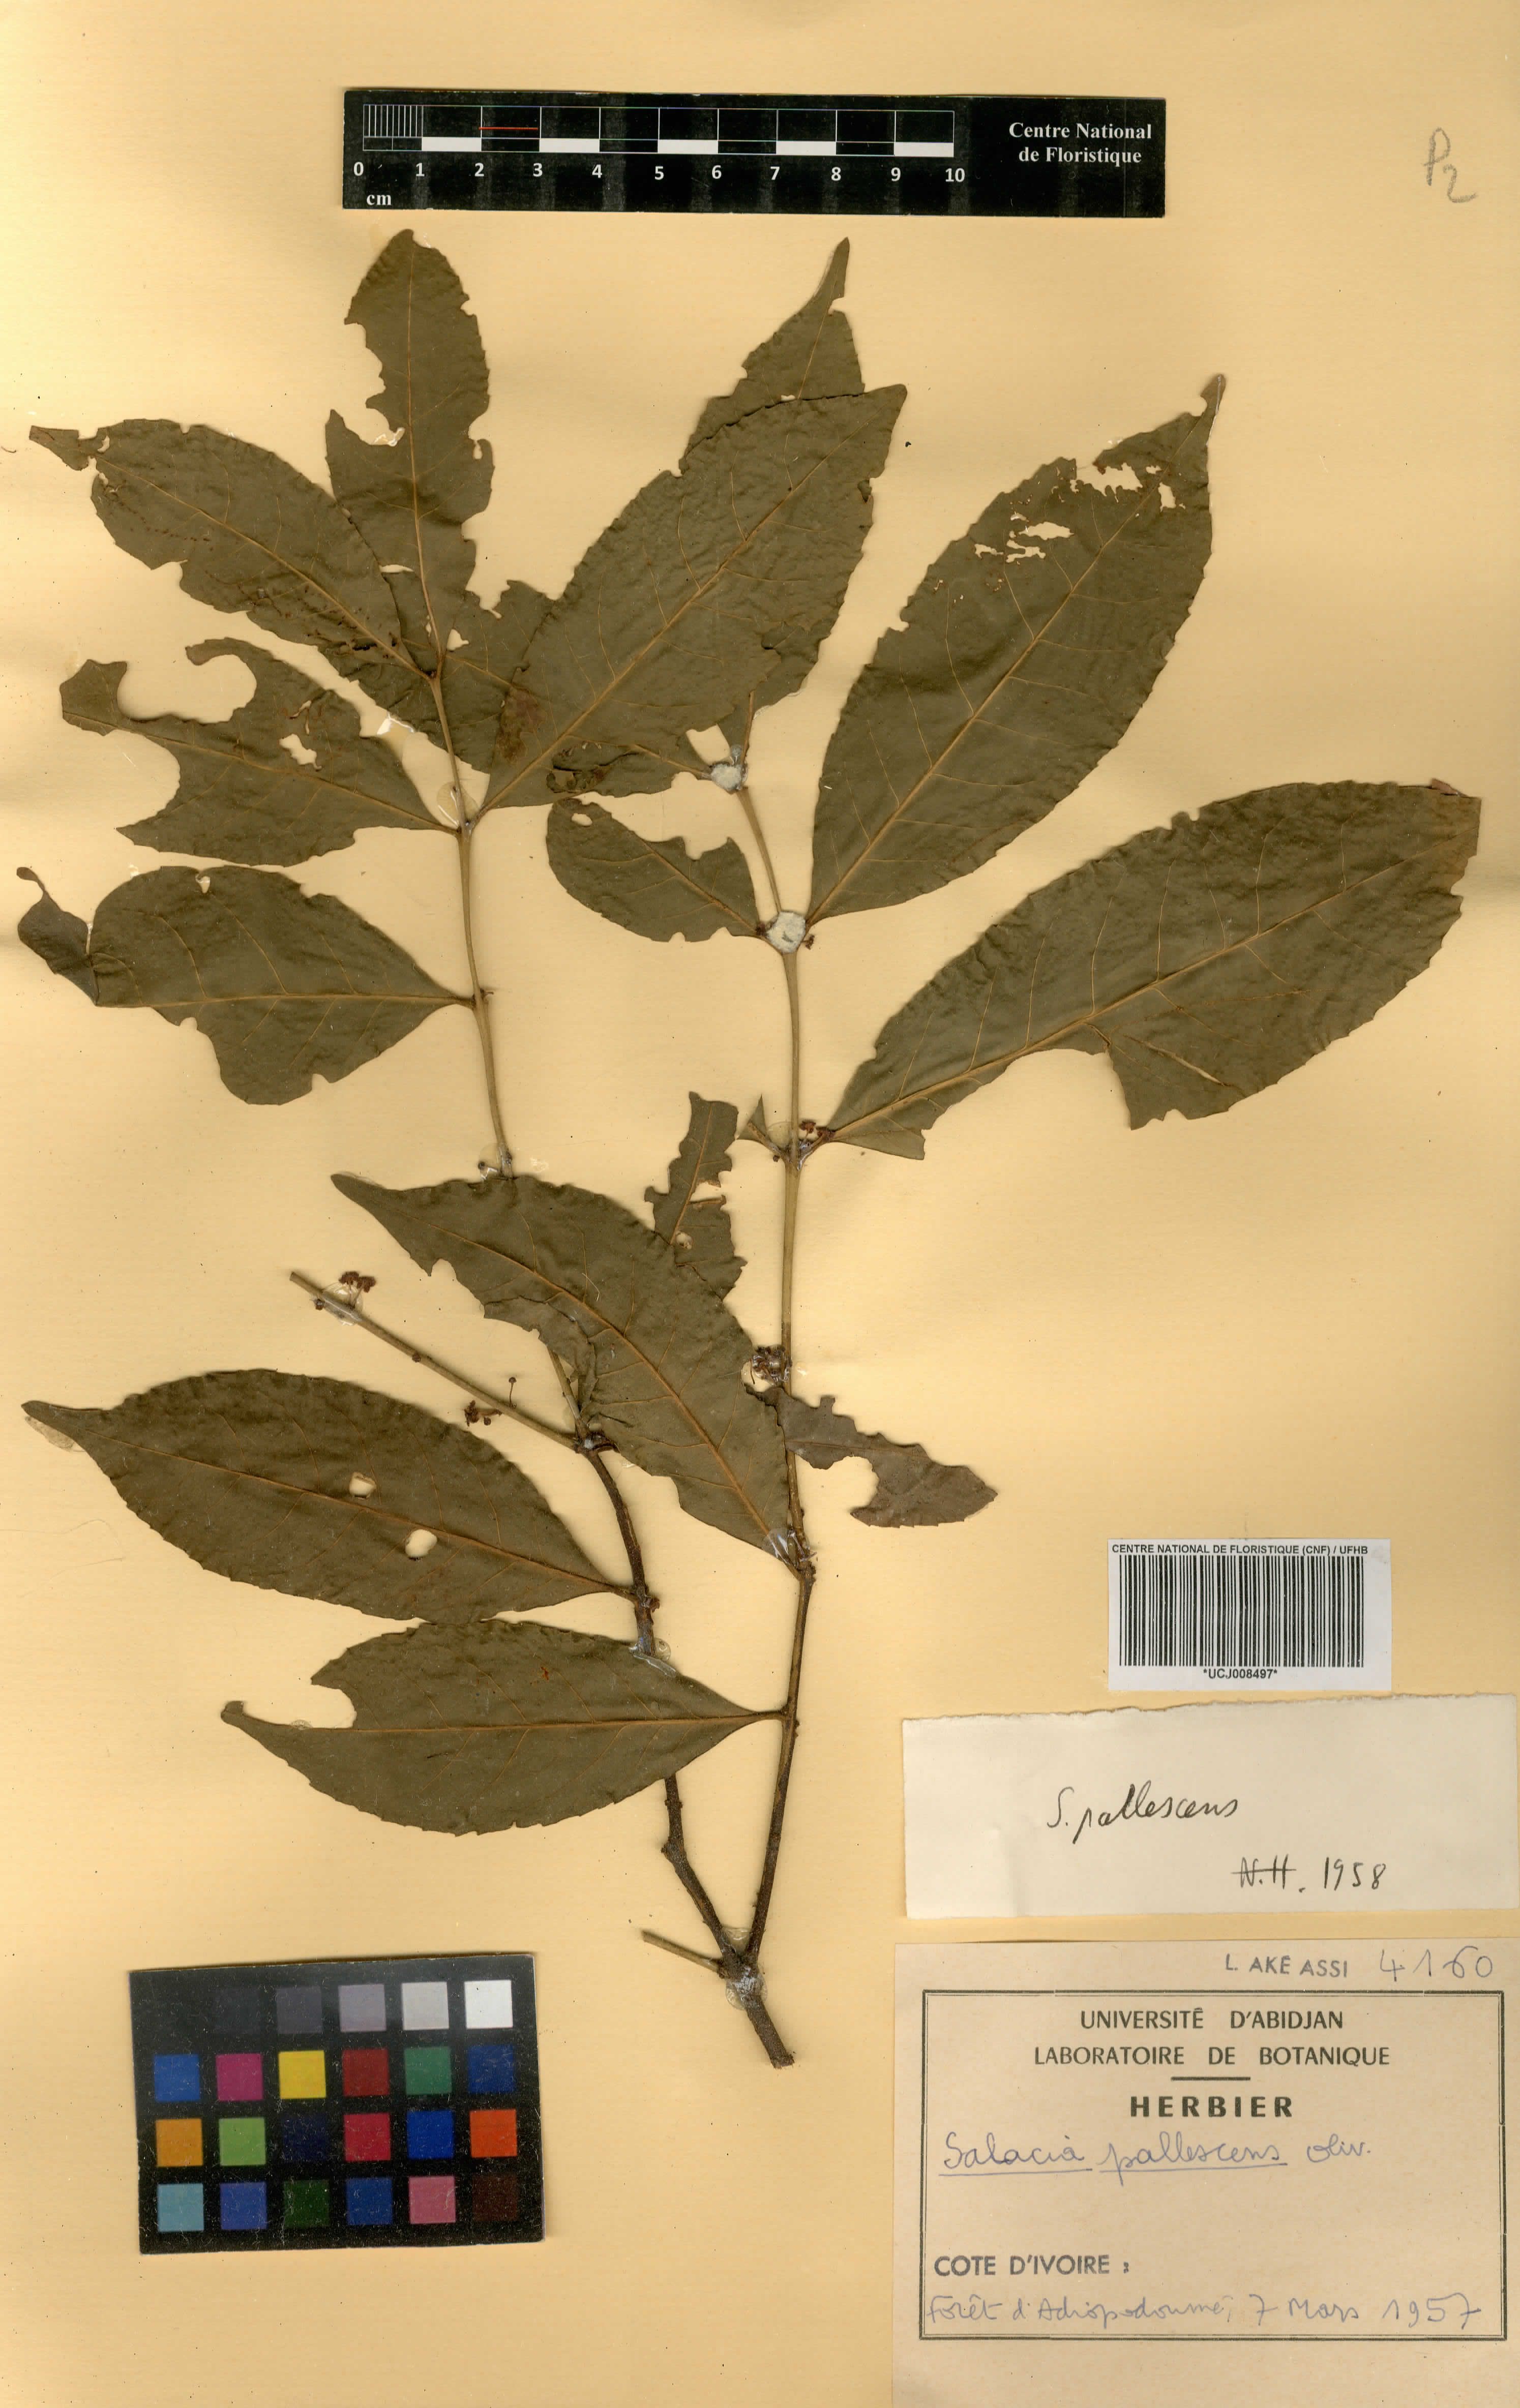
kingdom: Plantae
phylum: Tracheophyta
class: Magnoliopsida
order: Celastrales
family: Celastraceae
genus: Salacia
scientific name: Salacia pallescens
